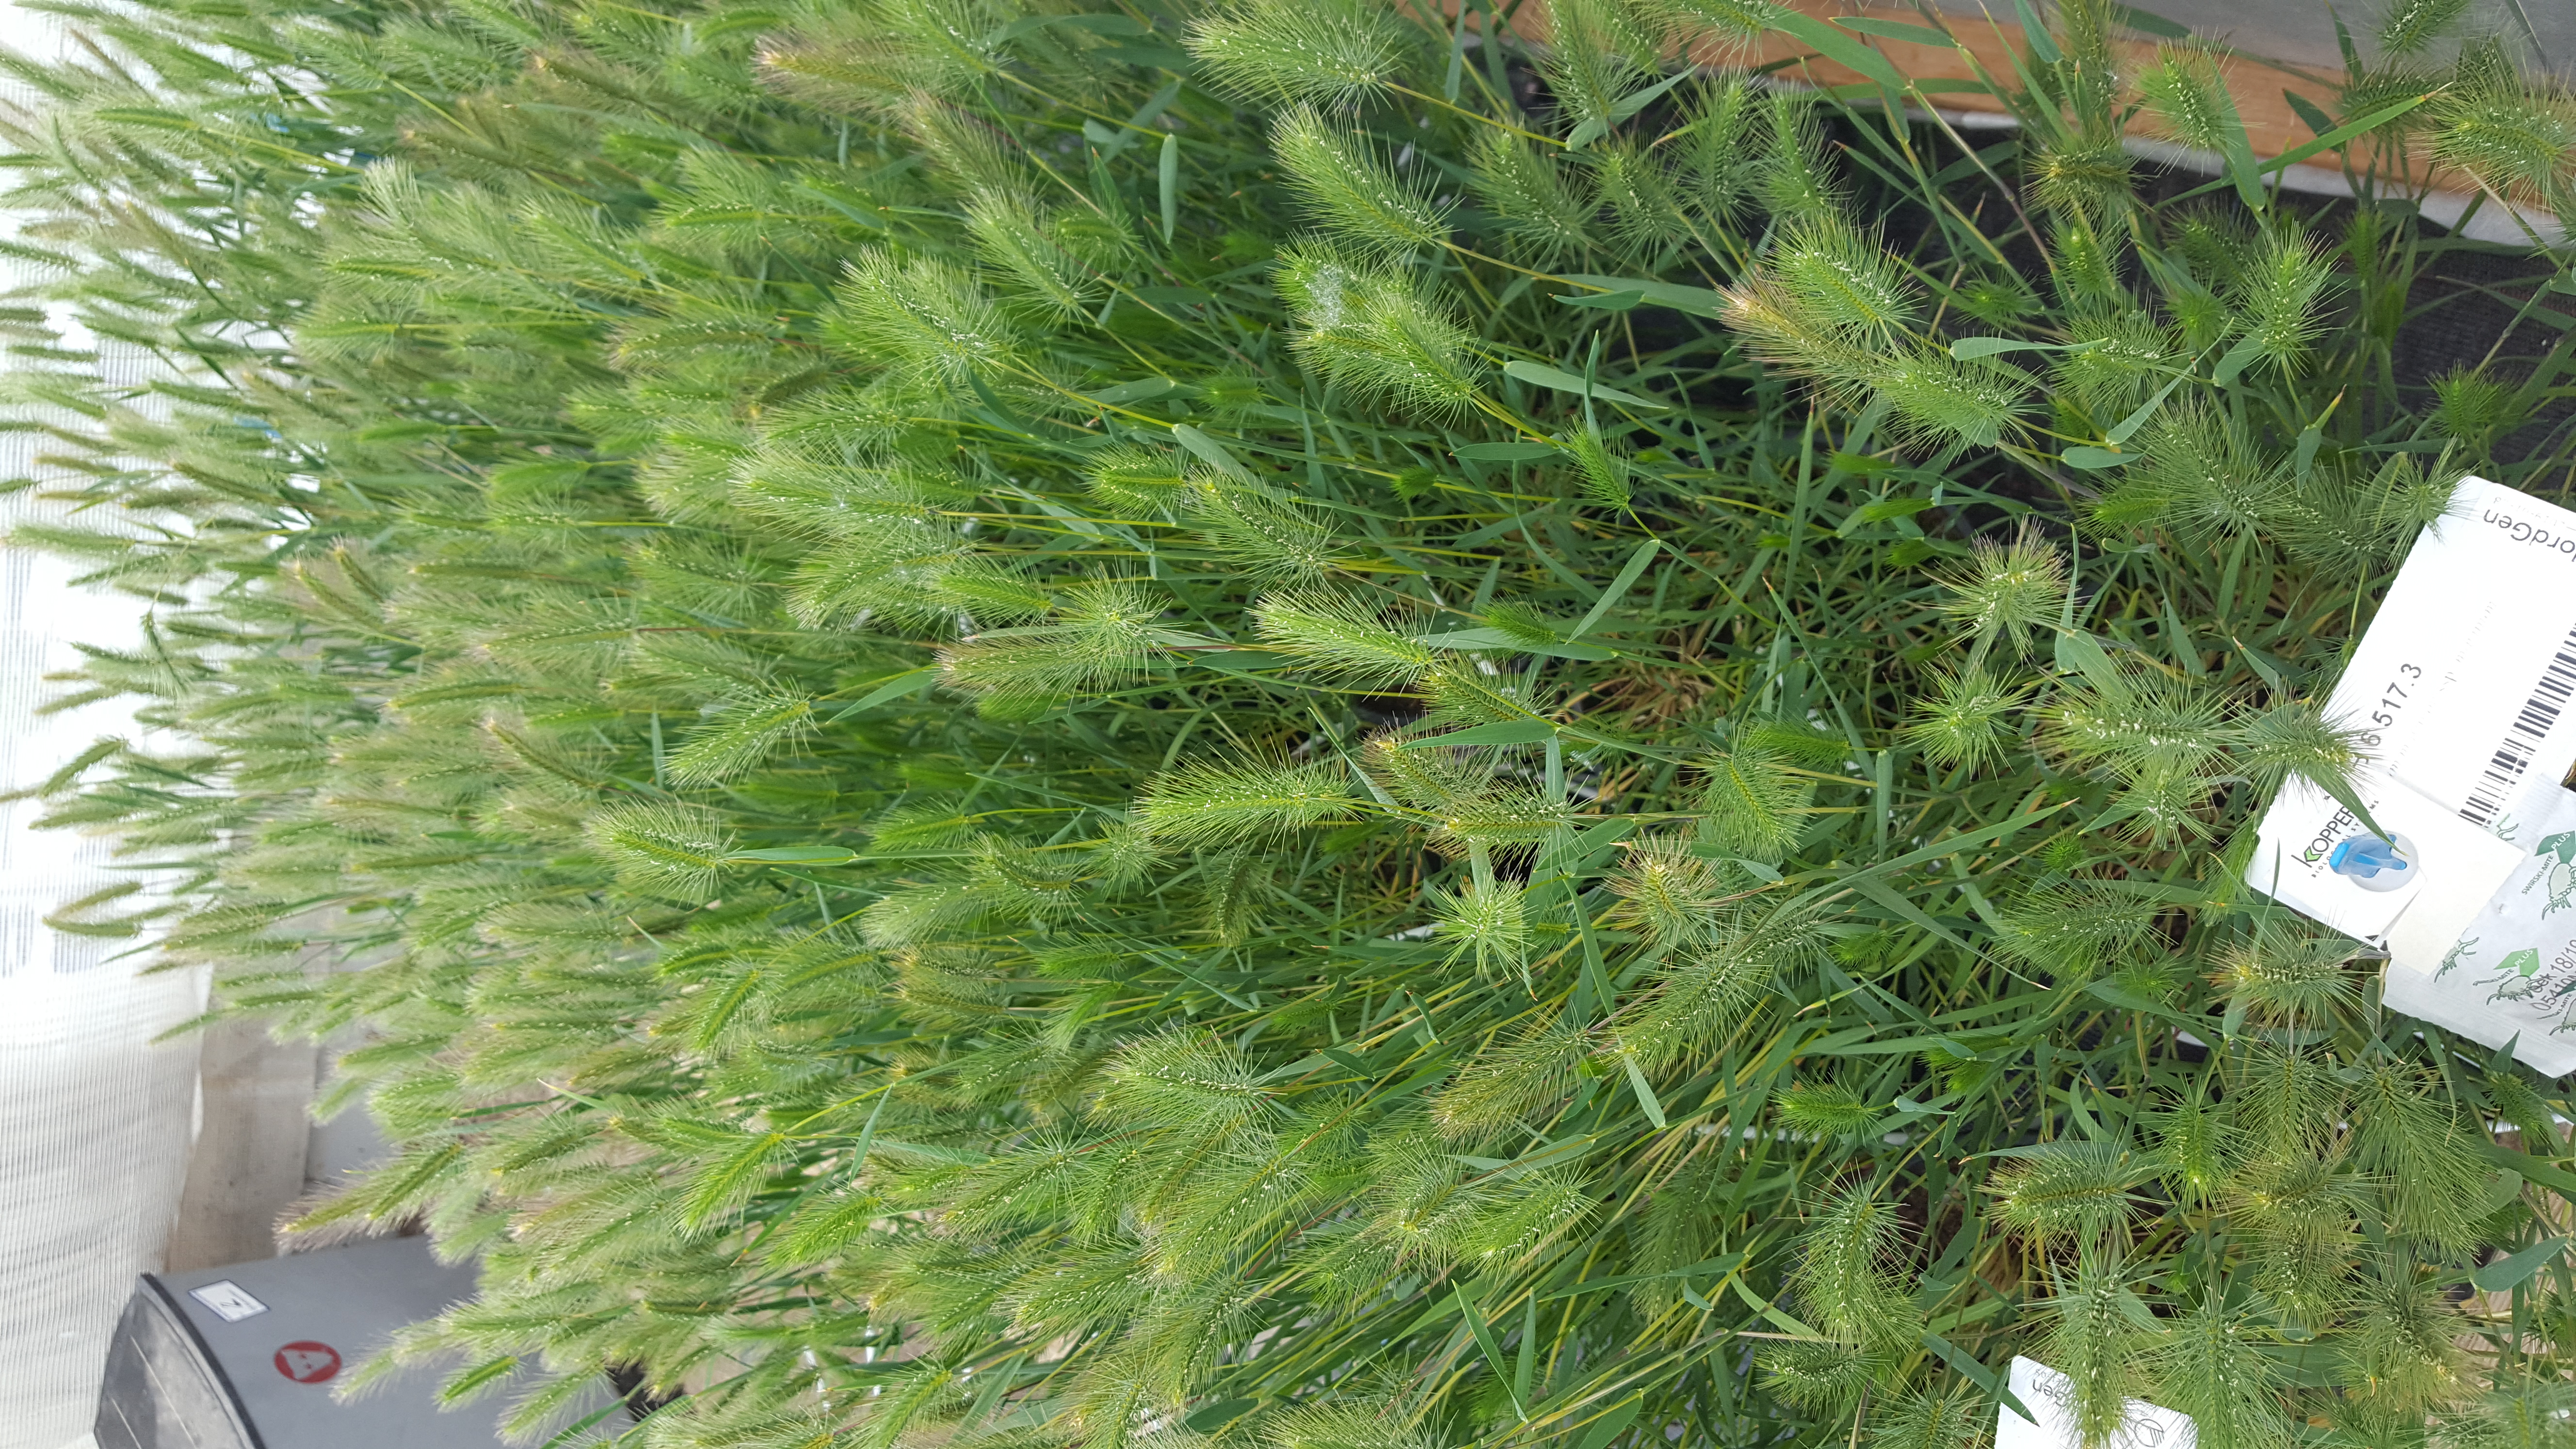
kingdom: Plantae
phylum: Tracheophyta
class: Liliopsida
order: Poales
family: Poaceae
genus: Hordeum
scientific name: Hordeum marinum
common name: Sea barley
